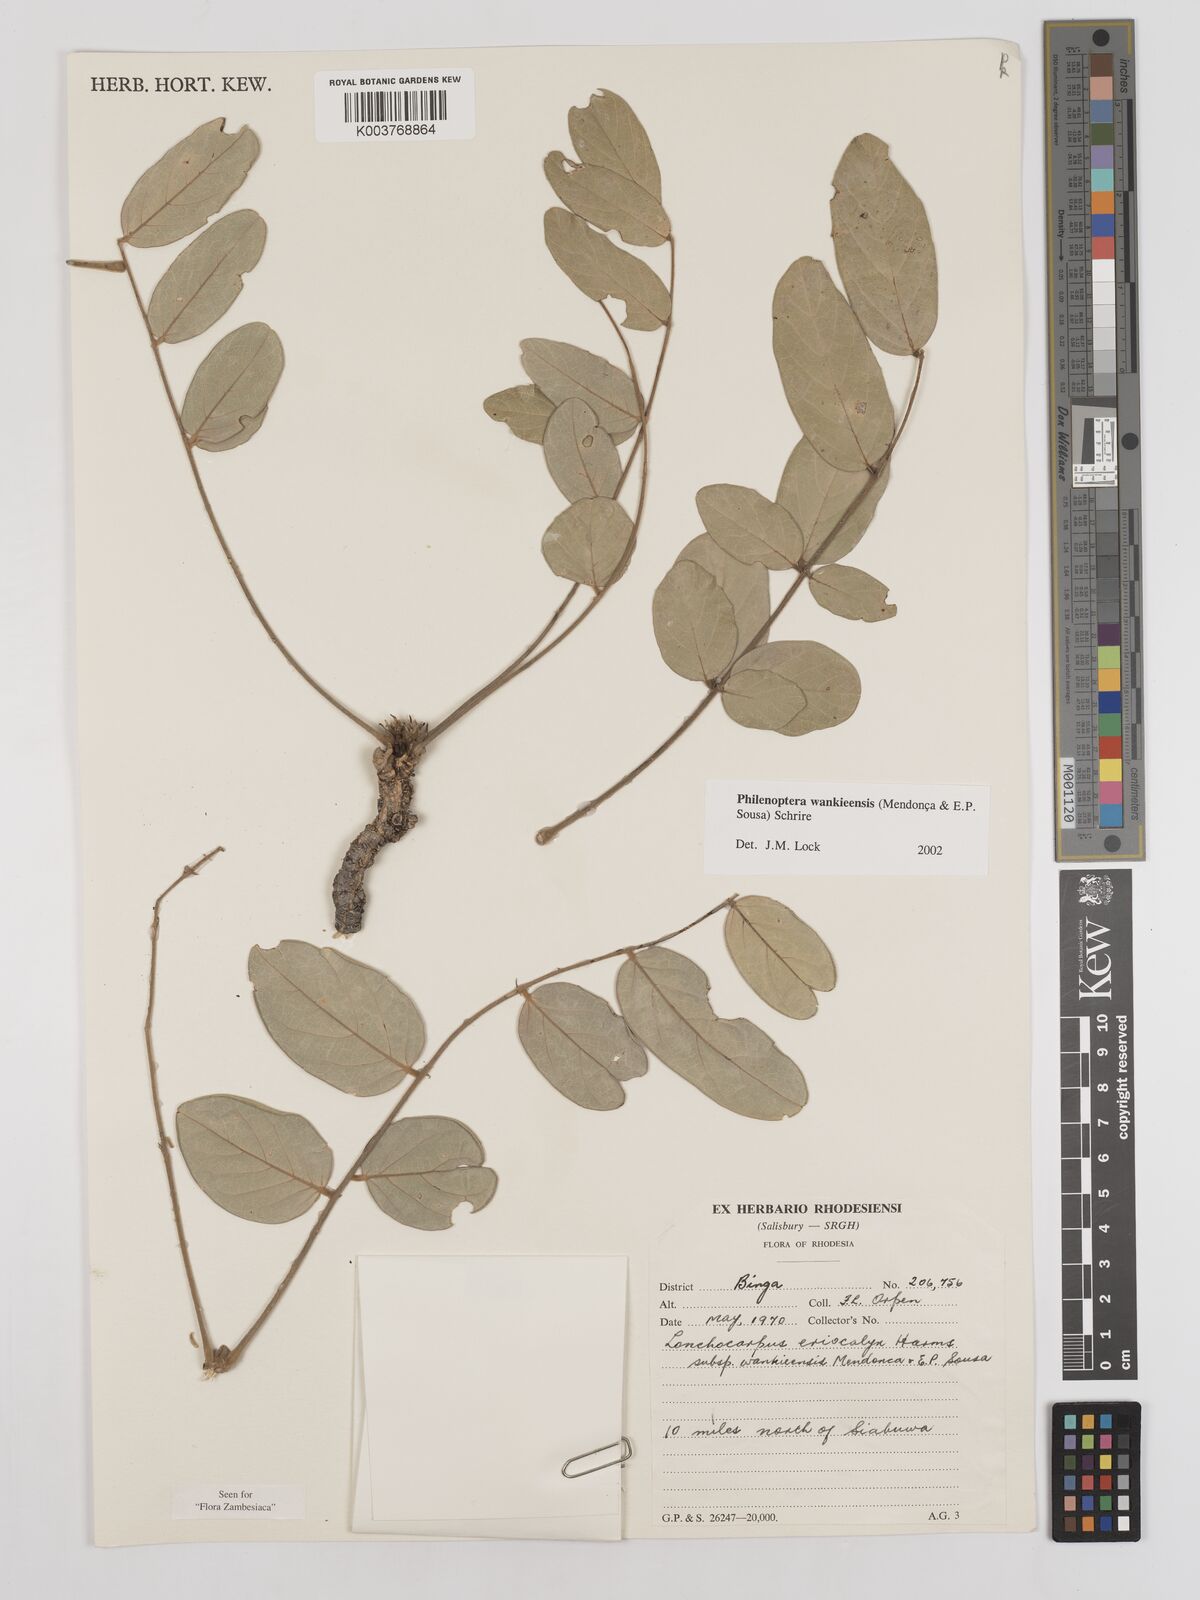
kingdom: Plantae
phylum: Tracheophyta
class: Magnoliopsida
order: Fabales
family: Fabaceae
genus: Philenoptera
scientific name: Philenoptera wankieensis
